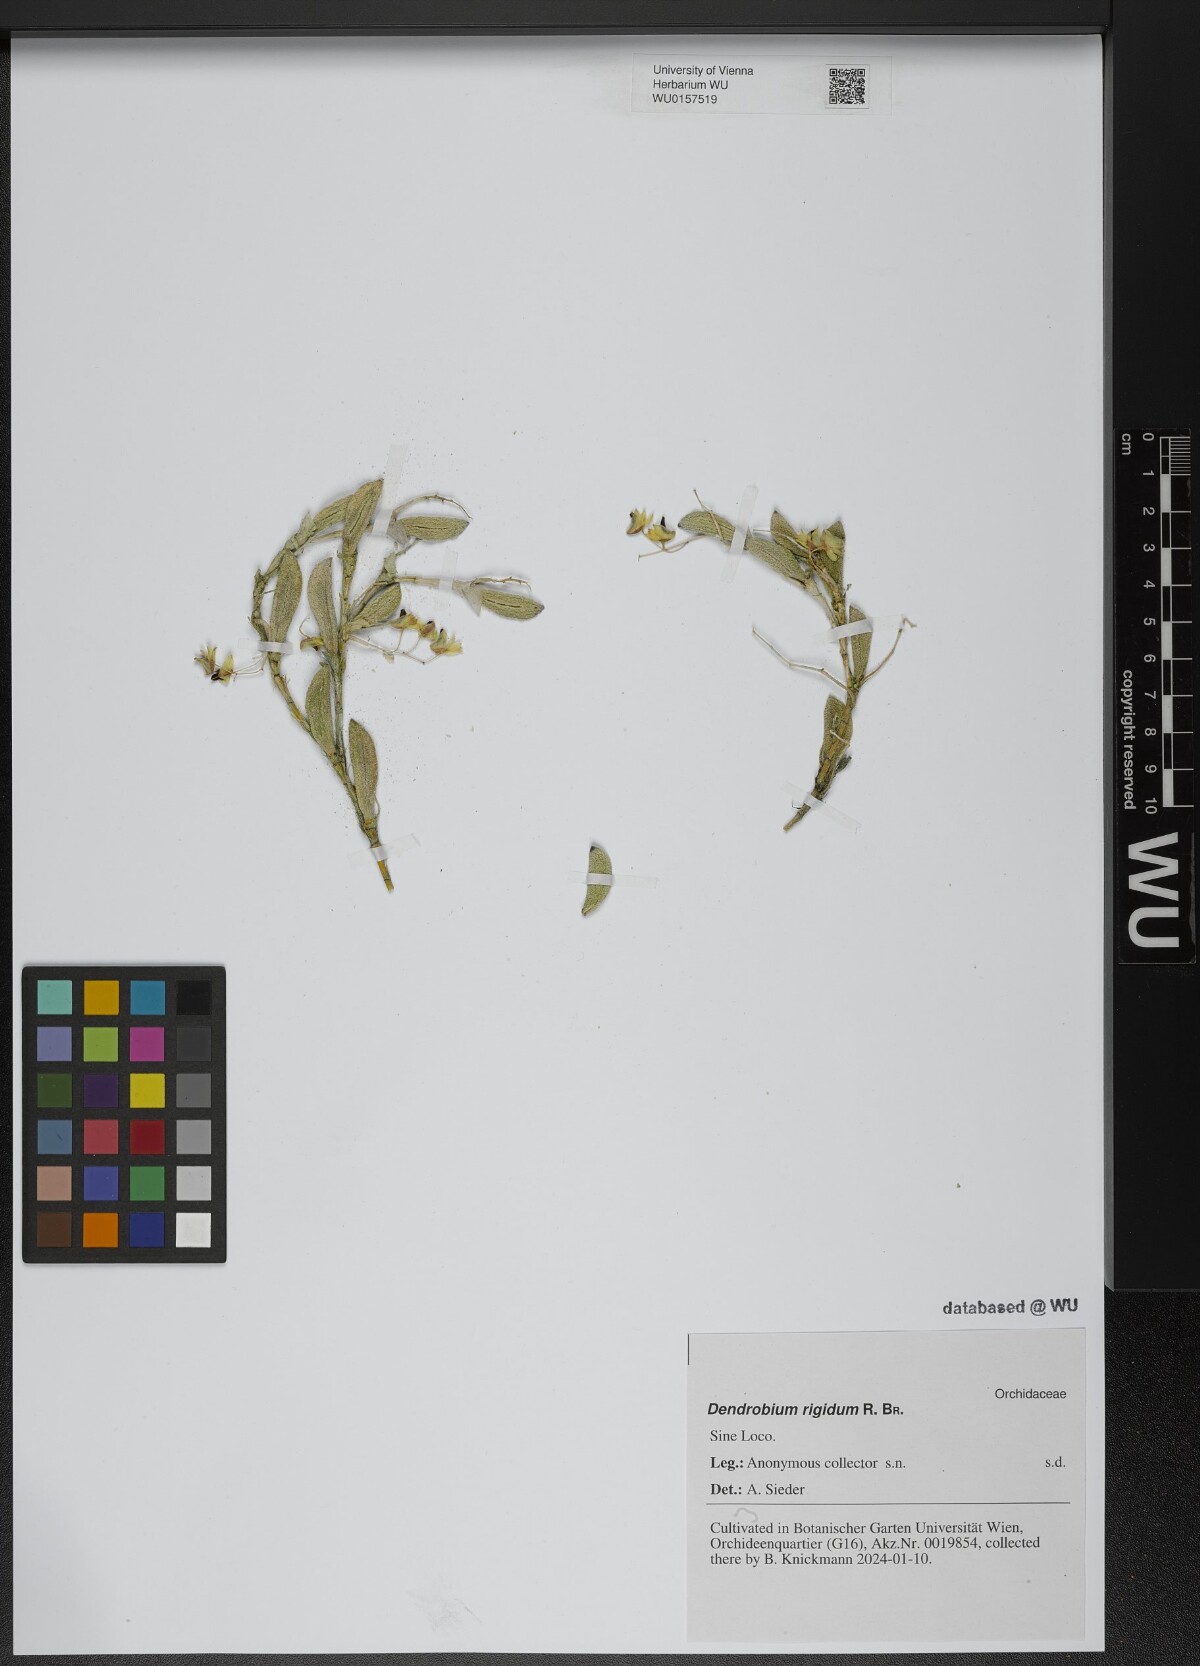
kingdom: Plantae
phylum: Tracheophyta
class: Liliopsida
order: Asparagales
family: Orchidaceae
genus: Dendrobium
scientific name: Dendrobium rigidum
